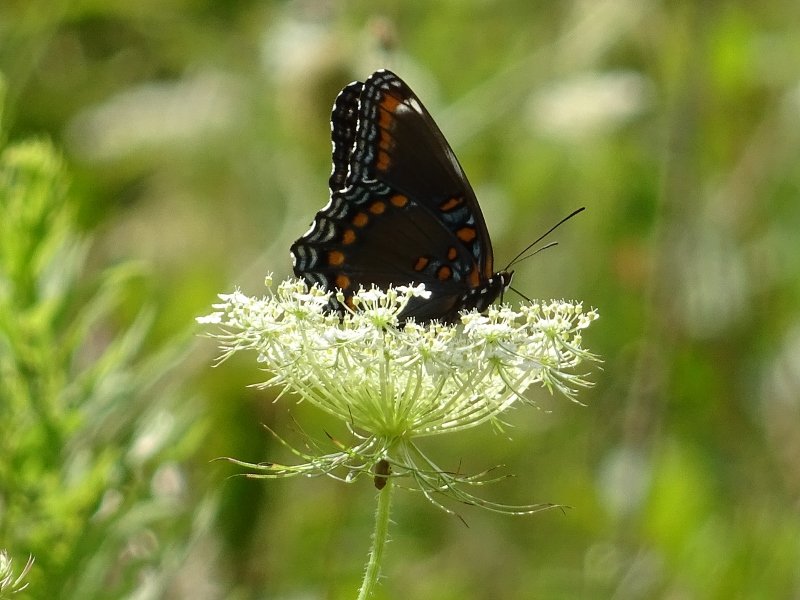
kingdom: Animalia
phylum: Arthropoda
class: Insecta
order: Lepidoptera
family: Nymphalidae
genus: Limenitis
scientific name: Limenitis astyanax
